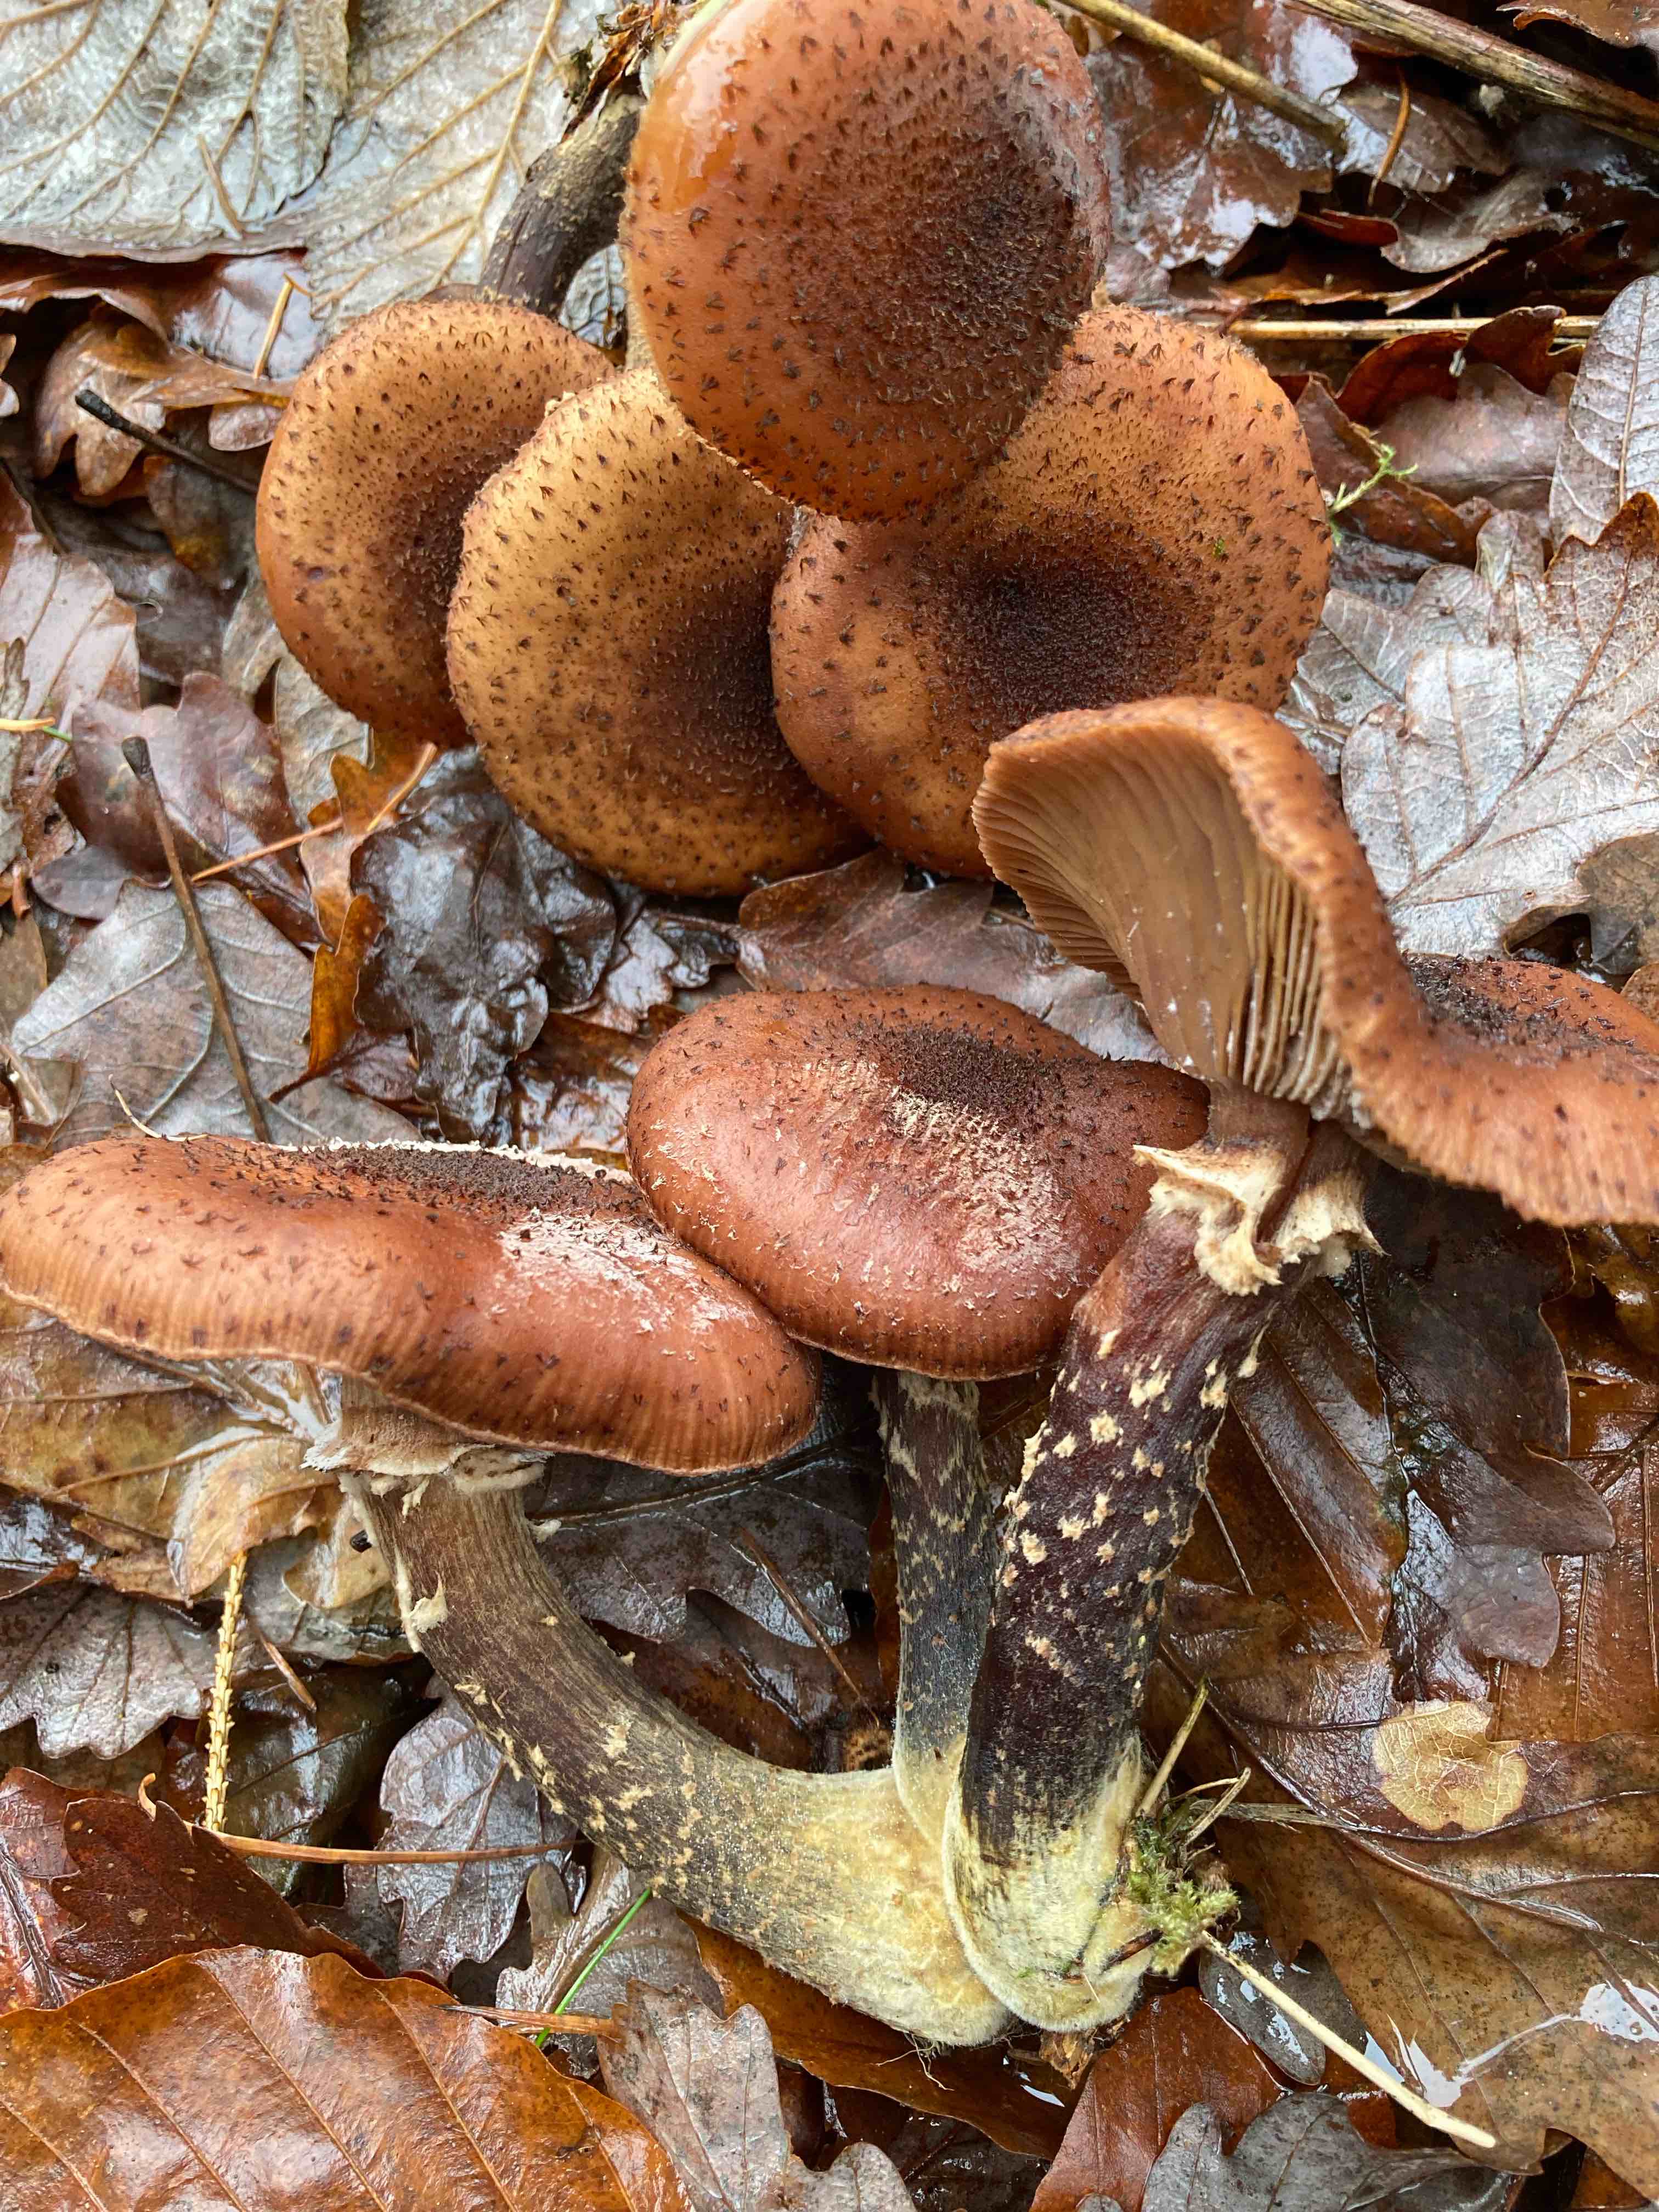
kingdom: Fungi
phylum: Basidiomycota
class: Agaricomycetes
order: Agaricales
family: Physalacriaceae
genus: Armillaria
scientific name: Armillaria ostoyae
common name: mørk honningsvamp
